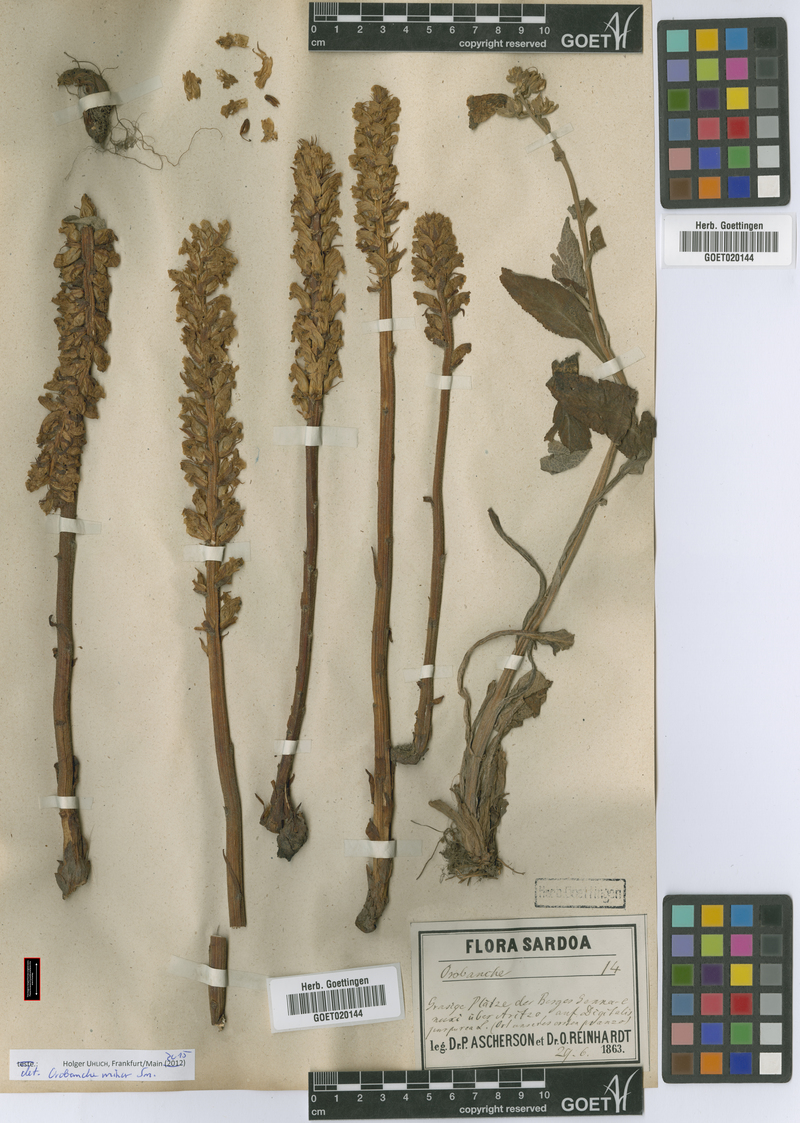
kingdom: Plantae
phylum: Tracheophyta
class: Magnoliopsida
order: Lamiales
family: Orobanchaceae
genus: Orobanche
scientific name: Orobanche minor
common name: Common broomrape
